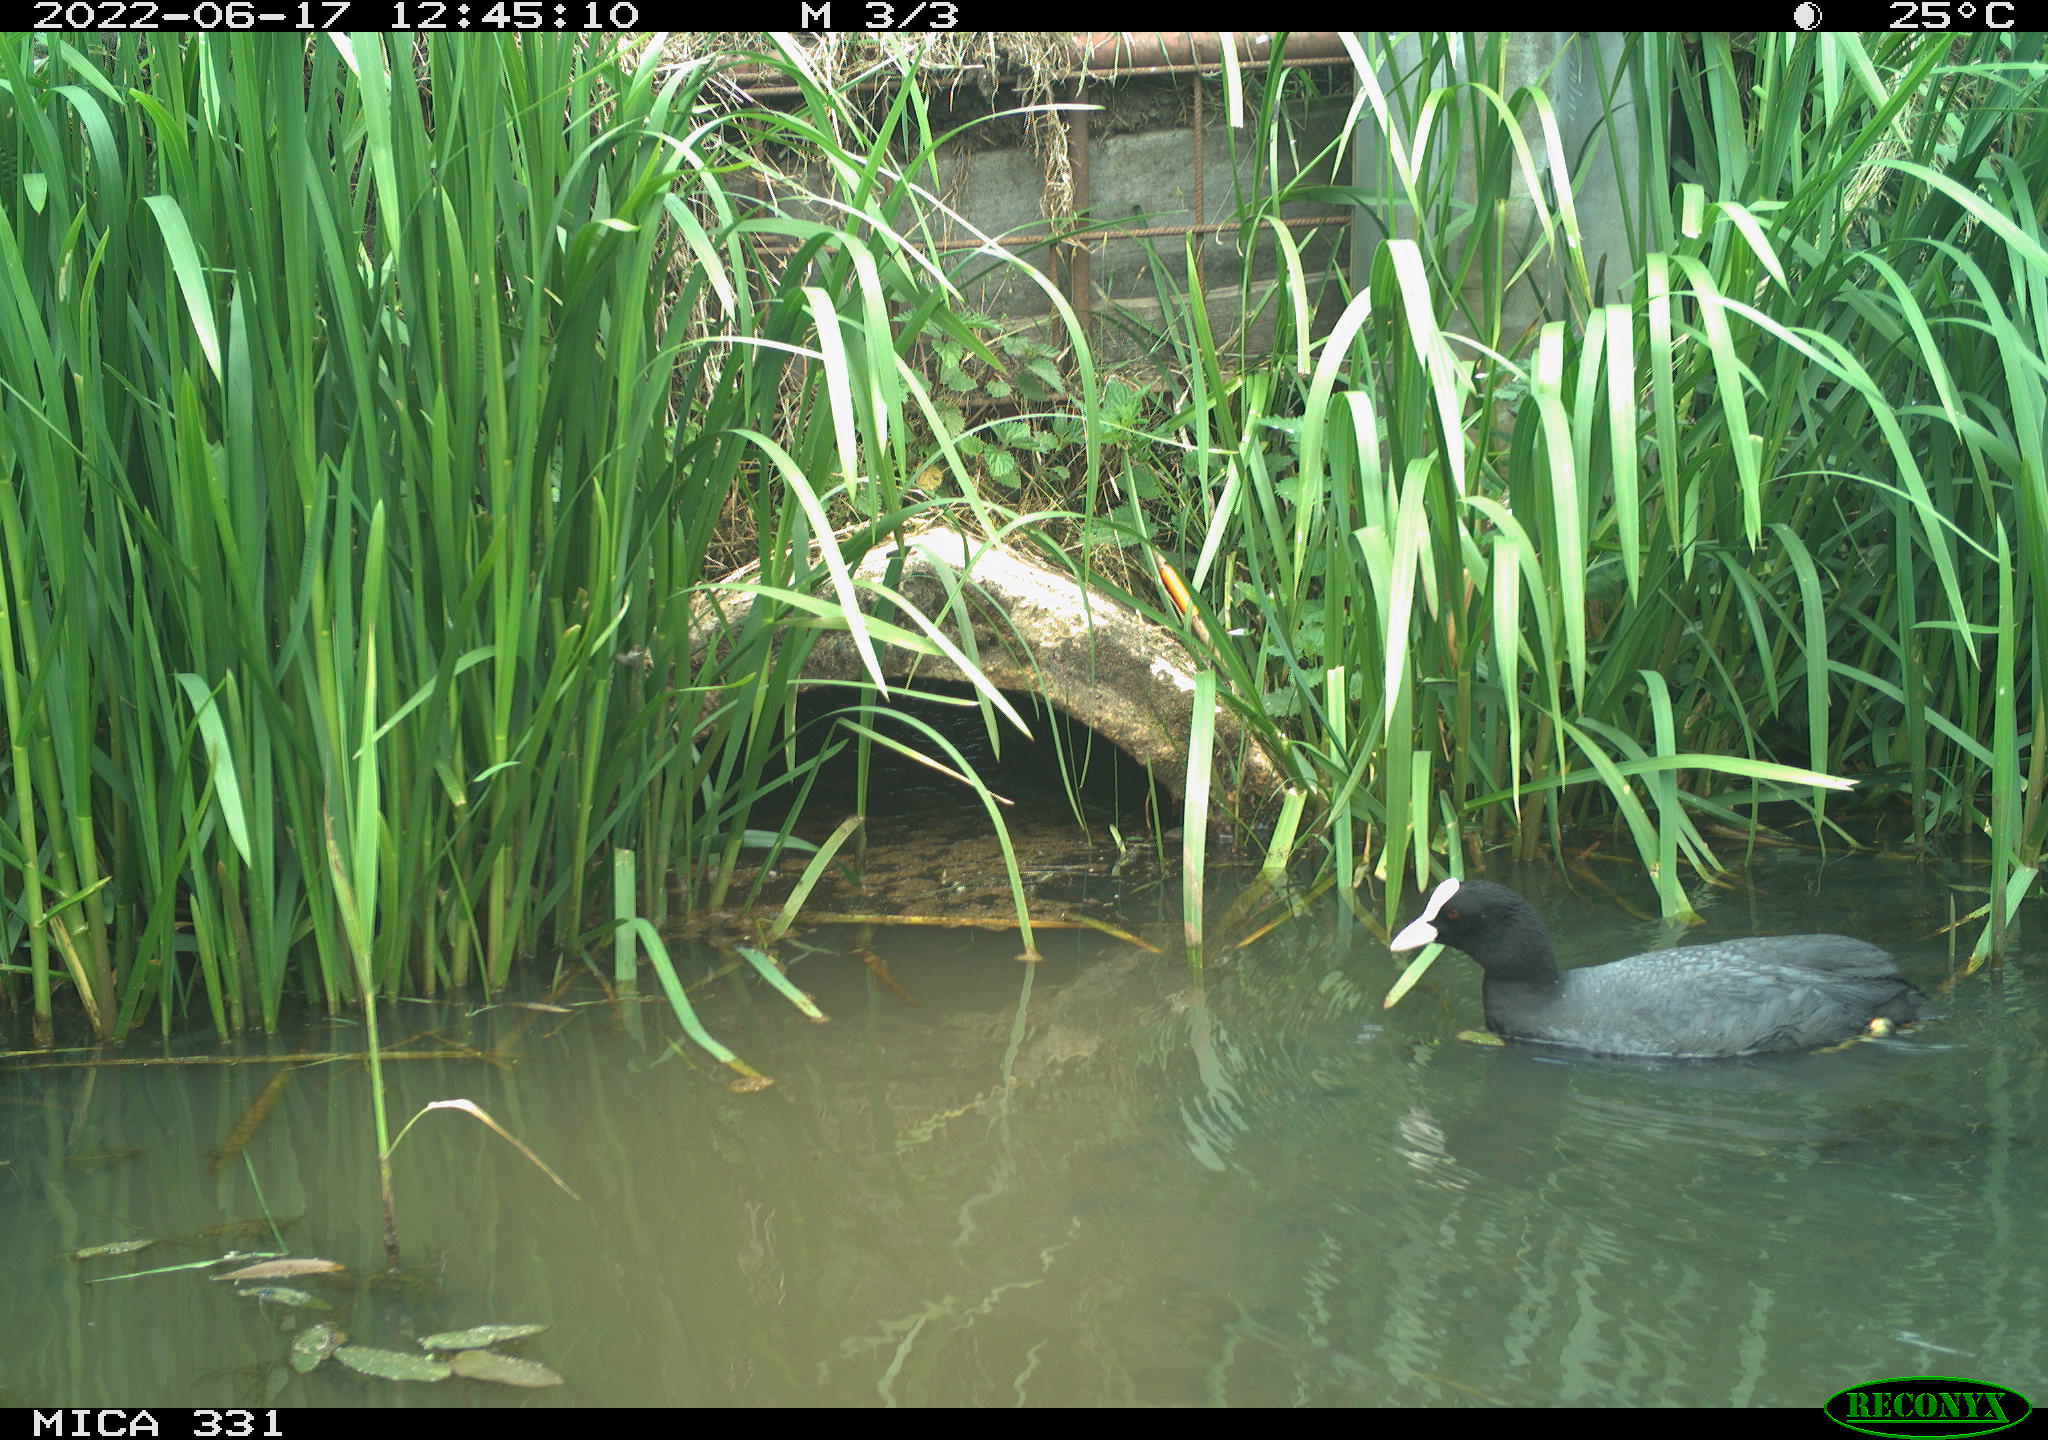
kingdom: Animalia
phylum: Chordata
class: Aves
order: Gruiformes
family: Rallidae
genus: Fulica
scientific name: Fulica atra
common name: Eurasian coot
